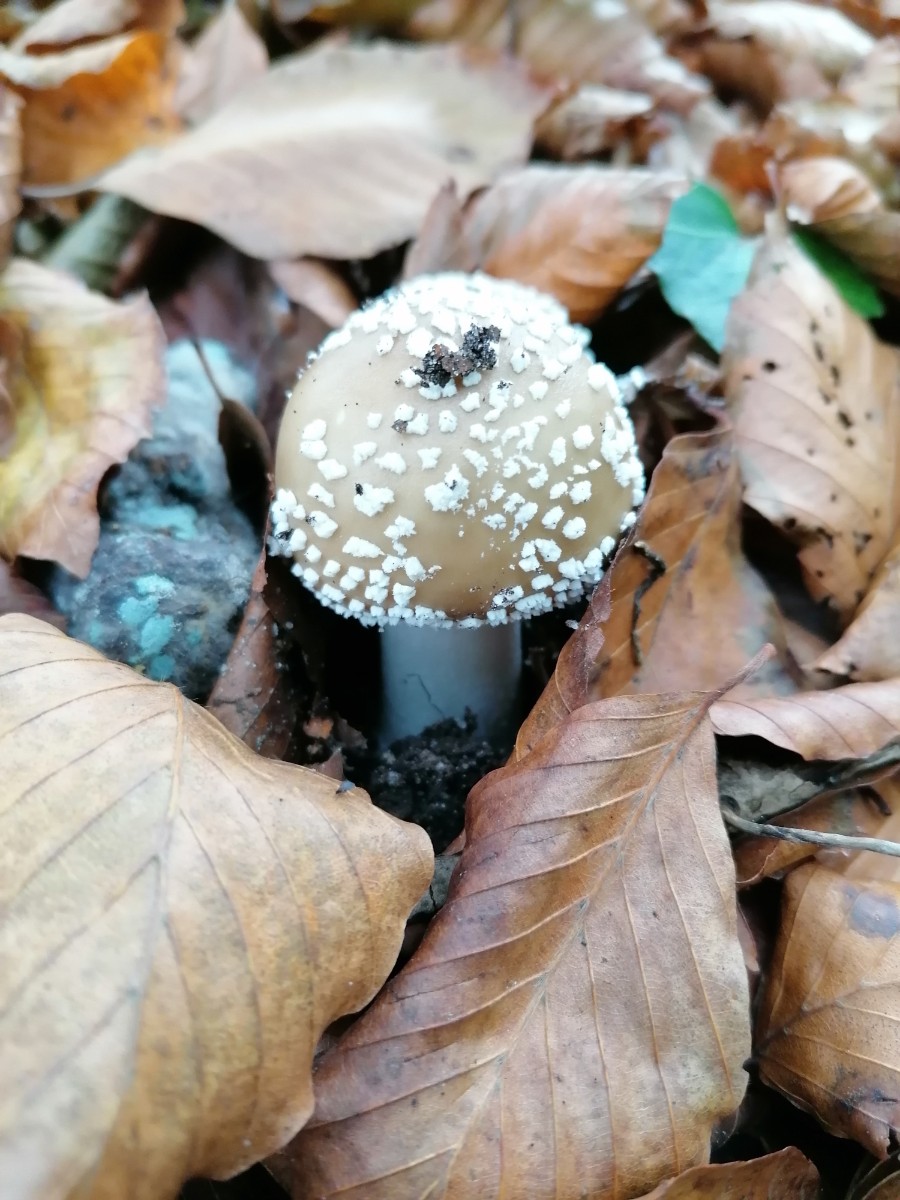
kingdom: Fungi
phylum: Basidiomycota
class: Agaricomycetes
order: Agaricales
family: Amanitaceae
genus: Amanita
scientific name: Amanita pantherina
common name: panter-fluesvamp
